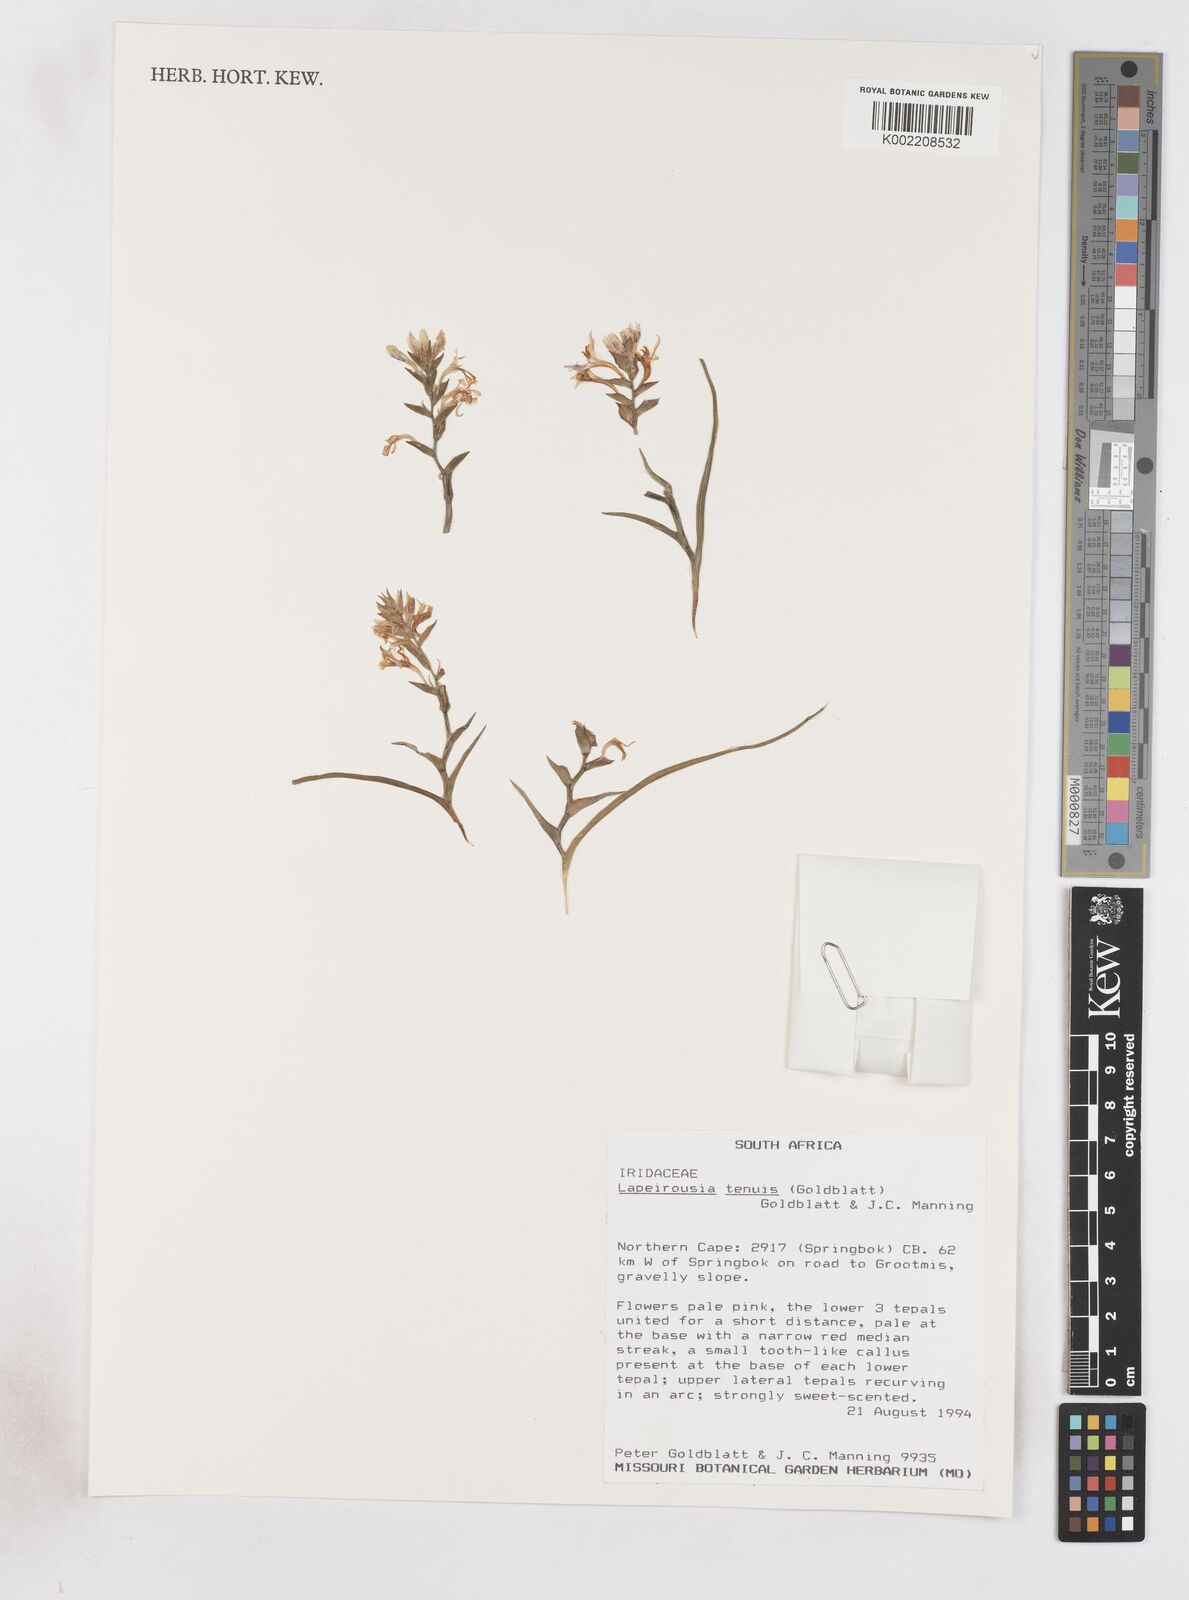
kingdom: Plantae
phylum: Tracheophyta
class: Liliopsida
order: Asparagales
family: Iridaceae
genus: Lapeirousia
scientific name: Lapeirousia tenuis
